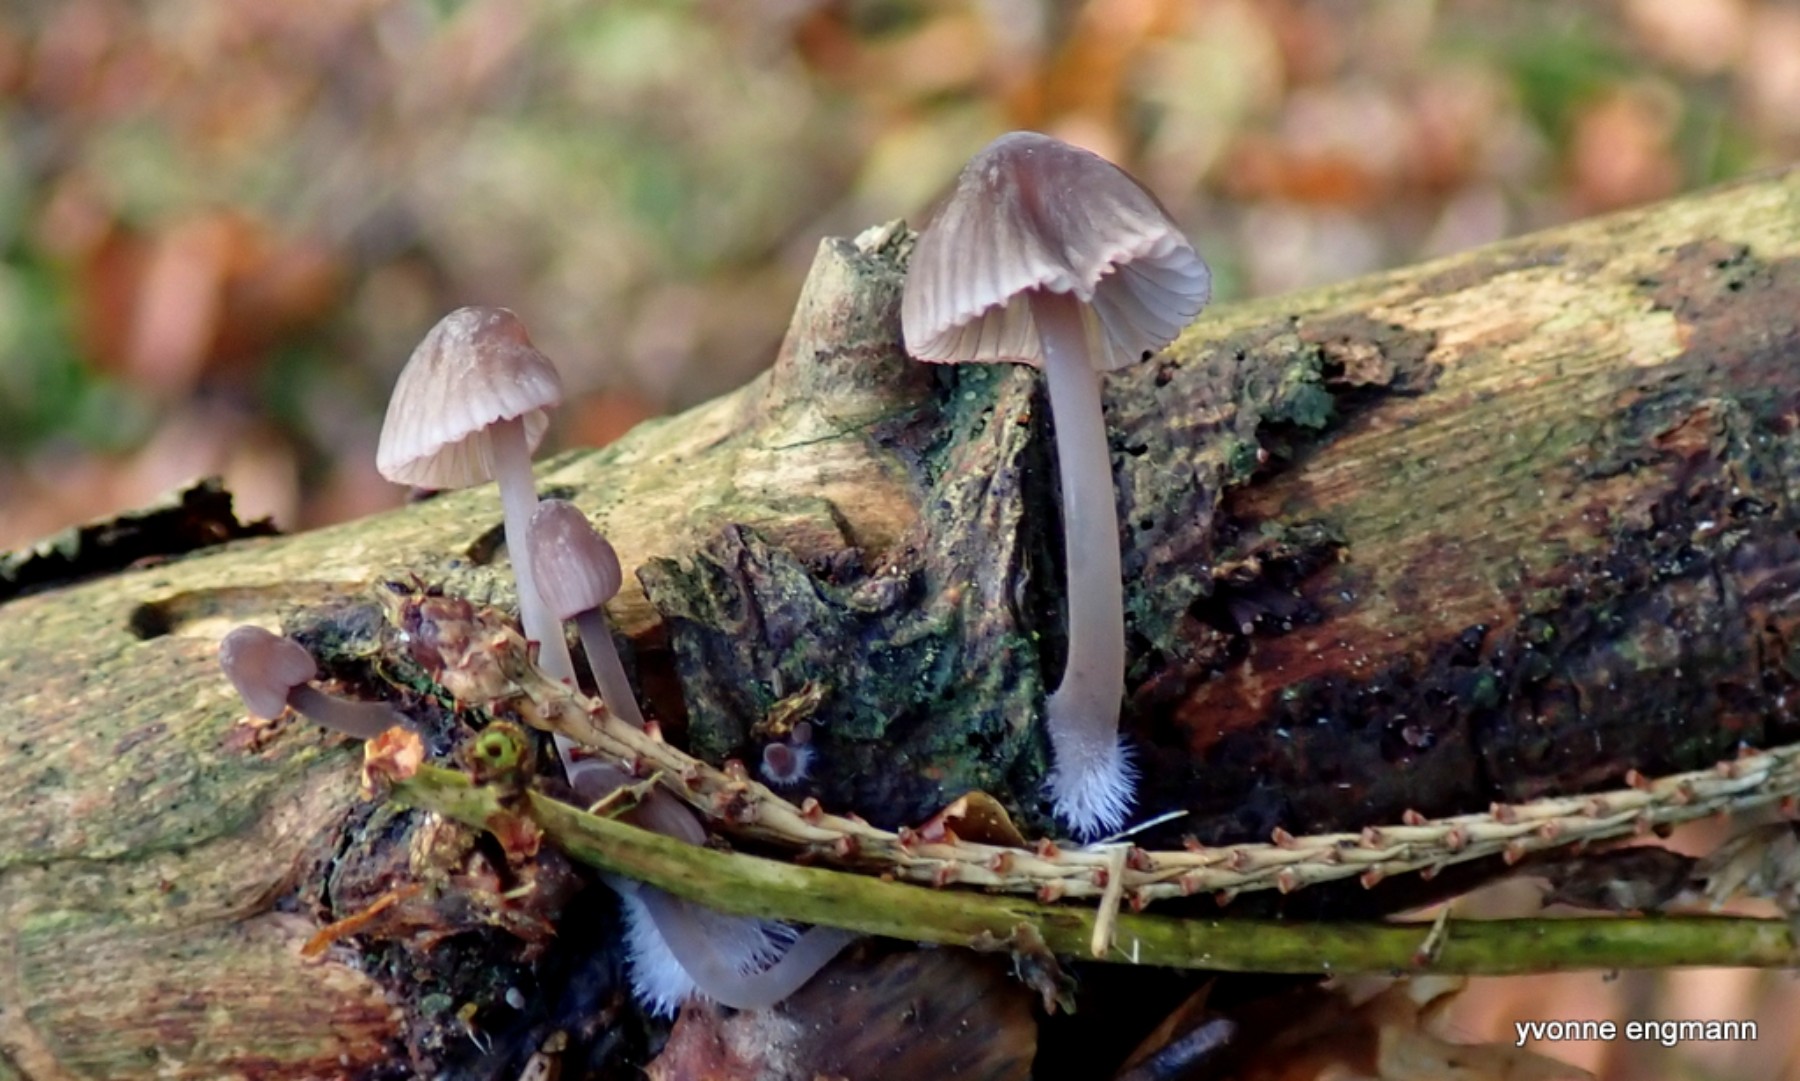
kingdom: Fungi
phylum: Basidiomycota
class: Agaricomycetes
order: Agaricales
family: Mycenaceae
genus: Mycena
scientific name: Mycena rubromarginata
